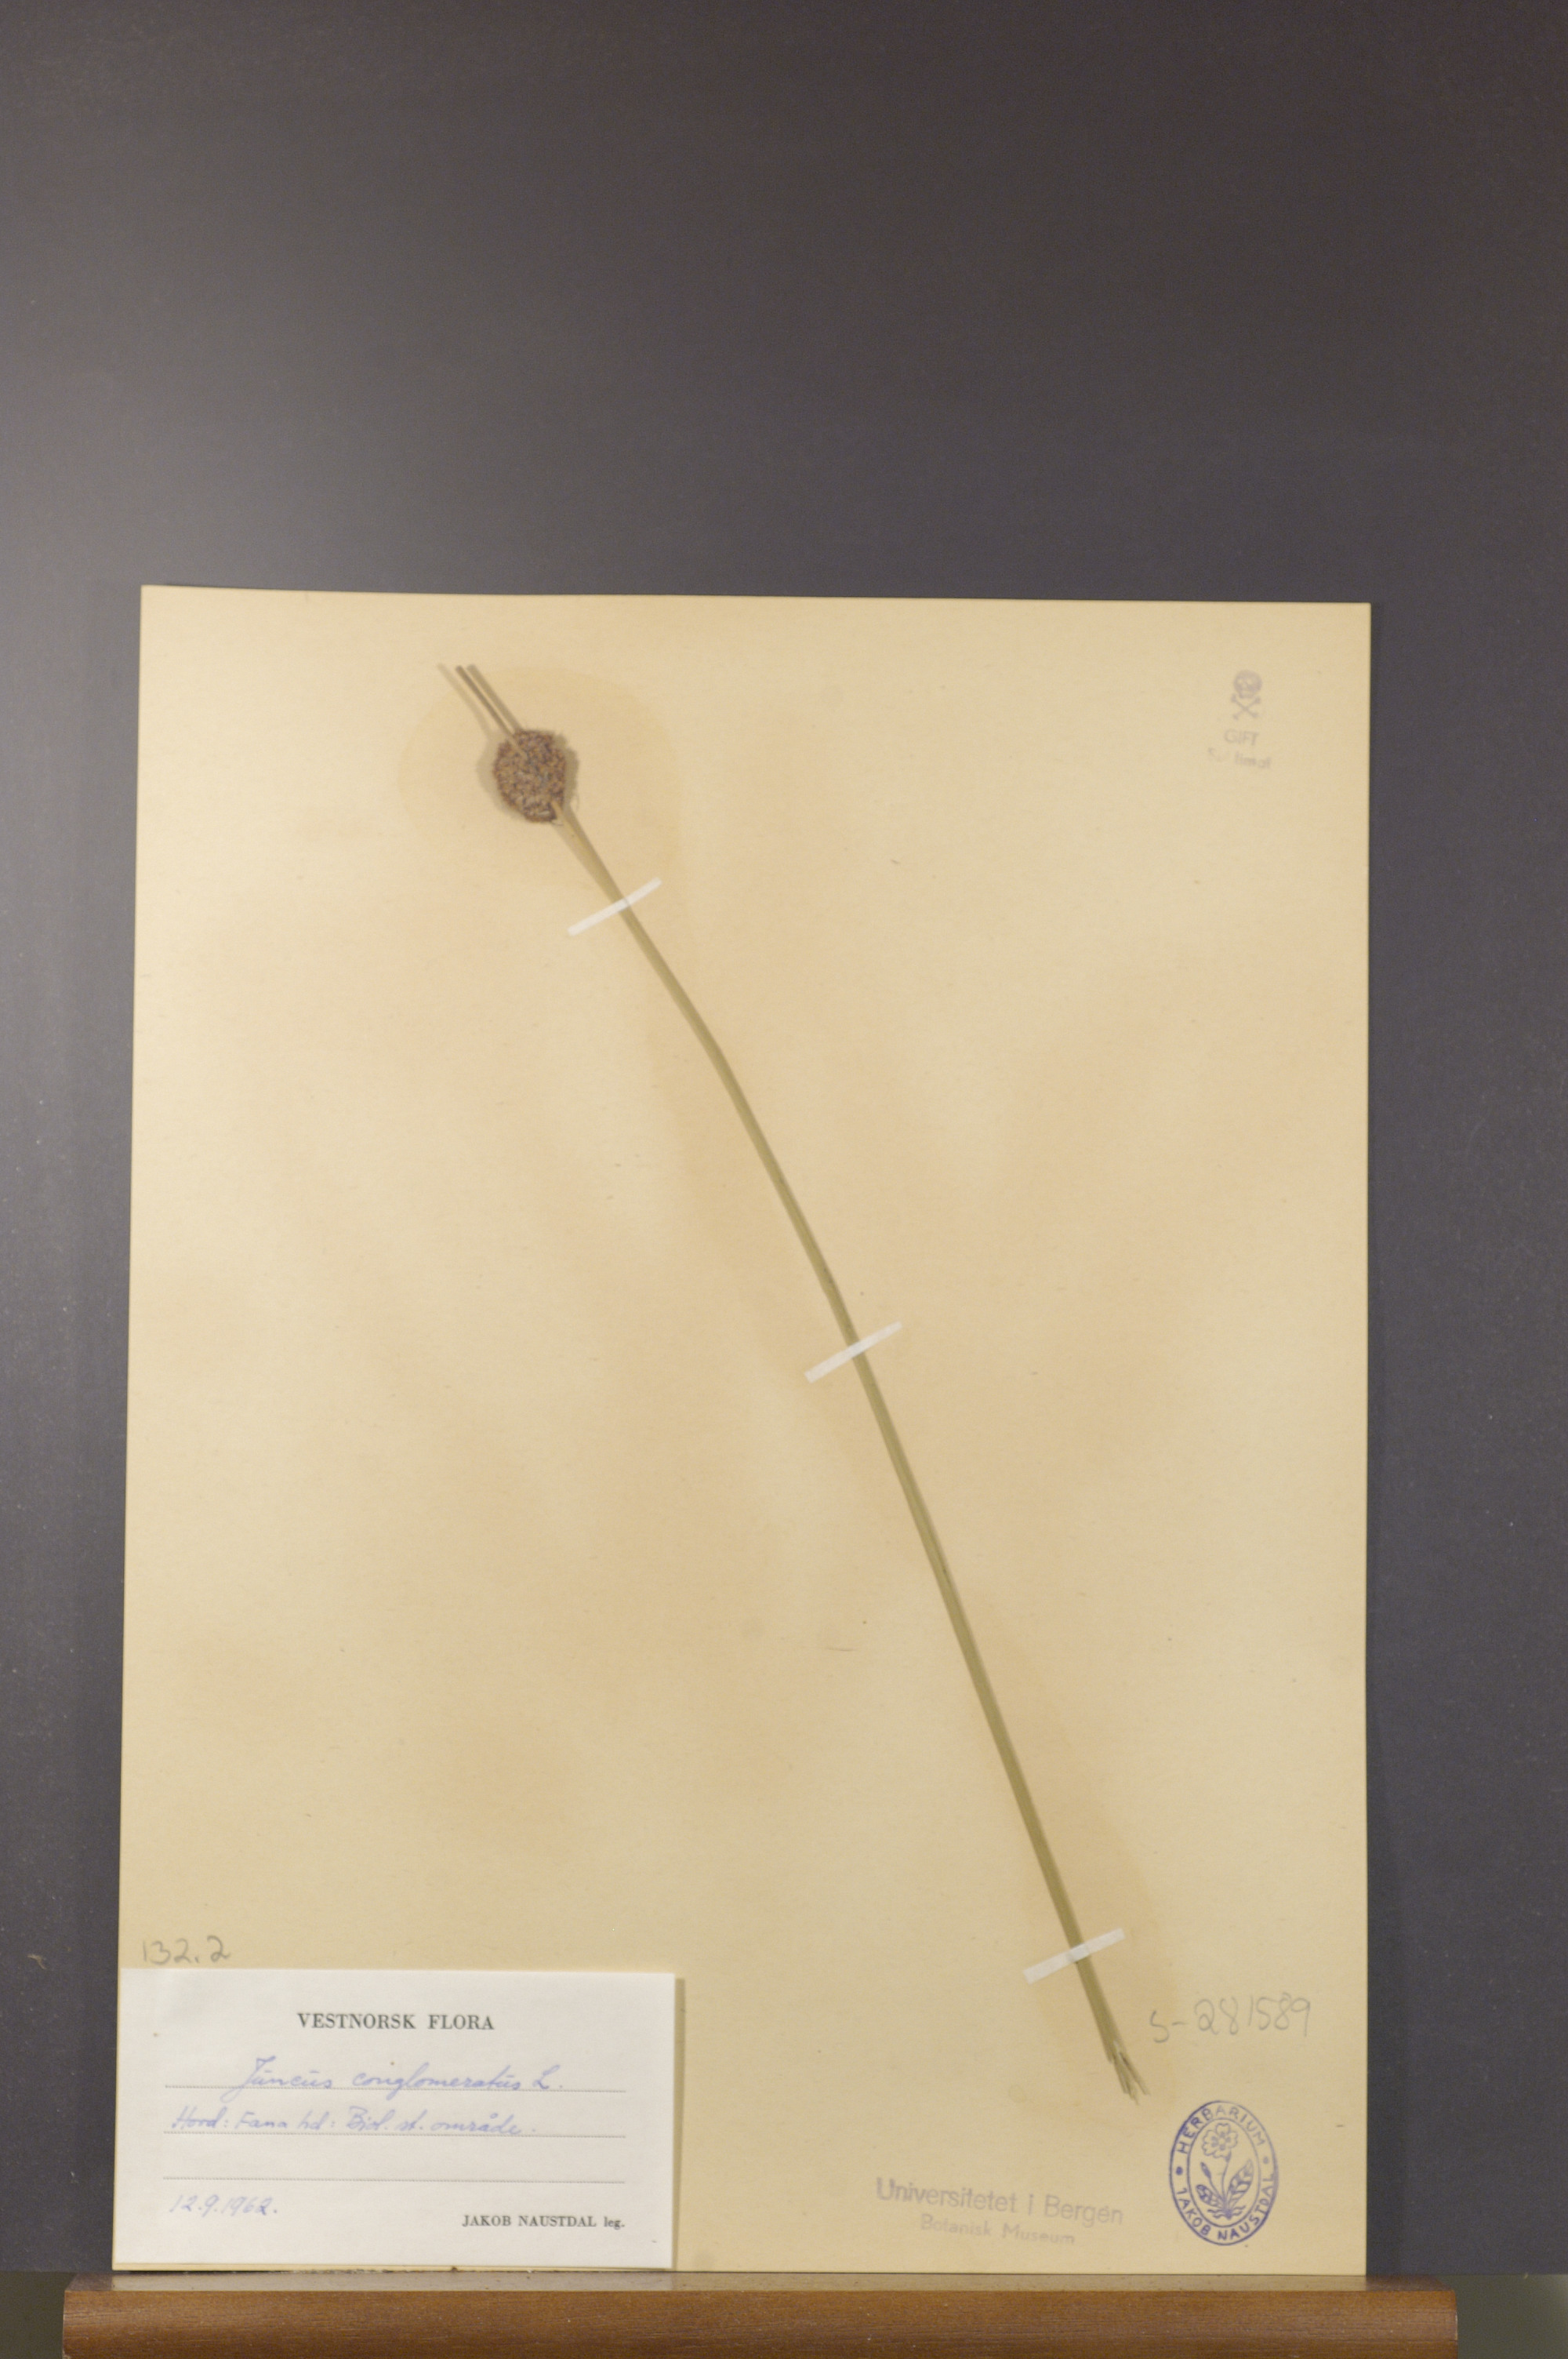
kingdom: Plantae
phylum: Tracheophyta
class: Liliopsida
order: Poales
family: Juncaceae
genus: Juncus
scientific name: Juncus conglomeratus
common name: Compact rush
